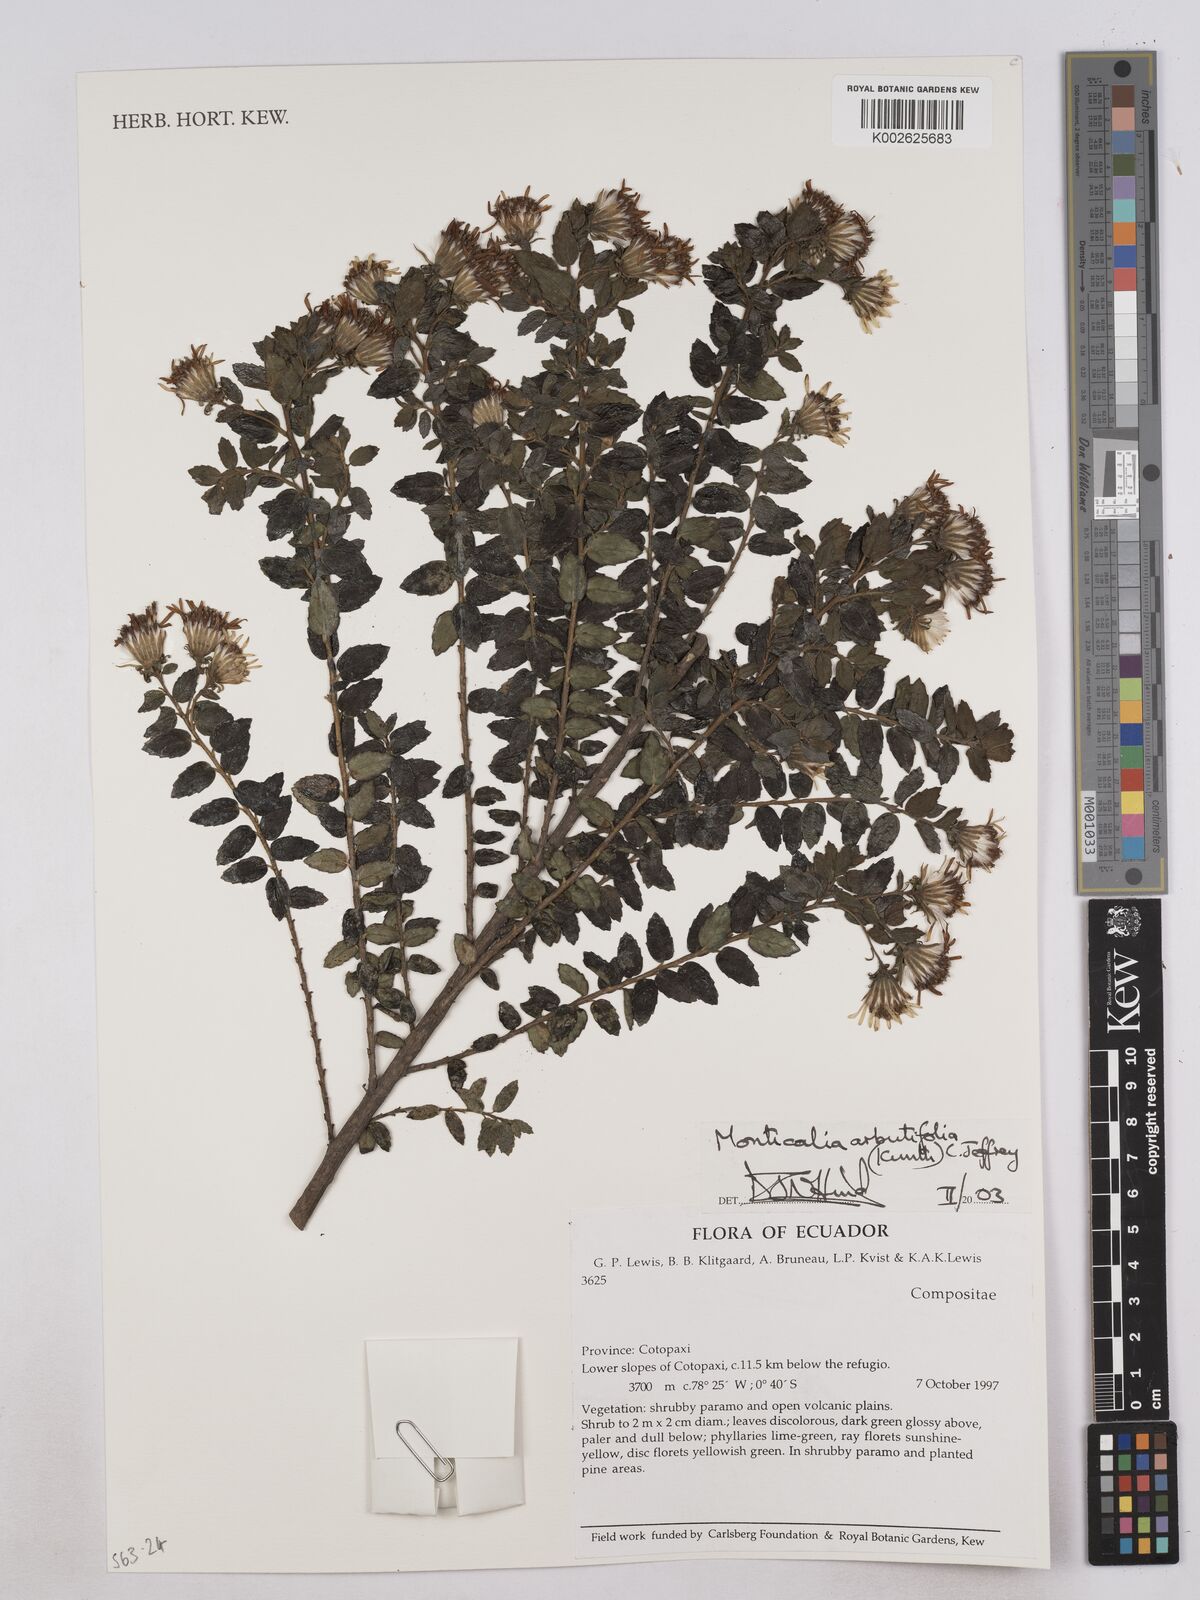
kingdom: Plantae
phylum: Tracheophyta
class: Magnoliopsida
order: Asterales
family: Asteraceae
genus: Monticalia
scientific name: Monticalia arbutifolia
